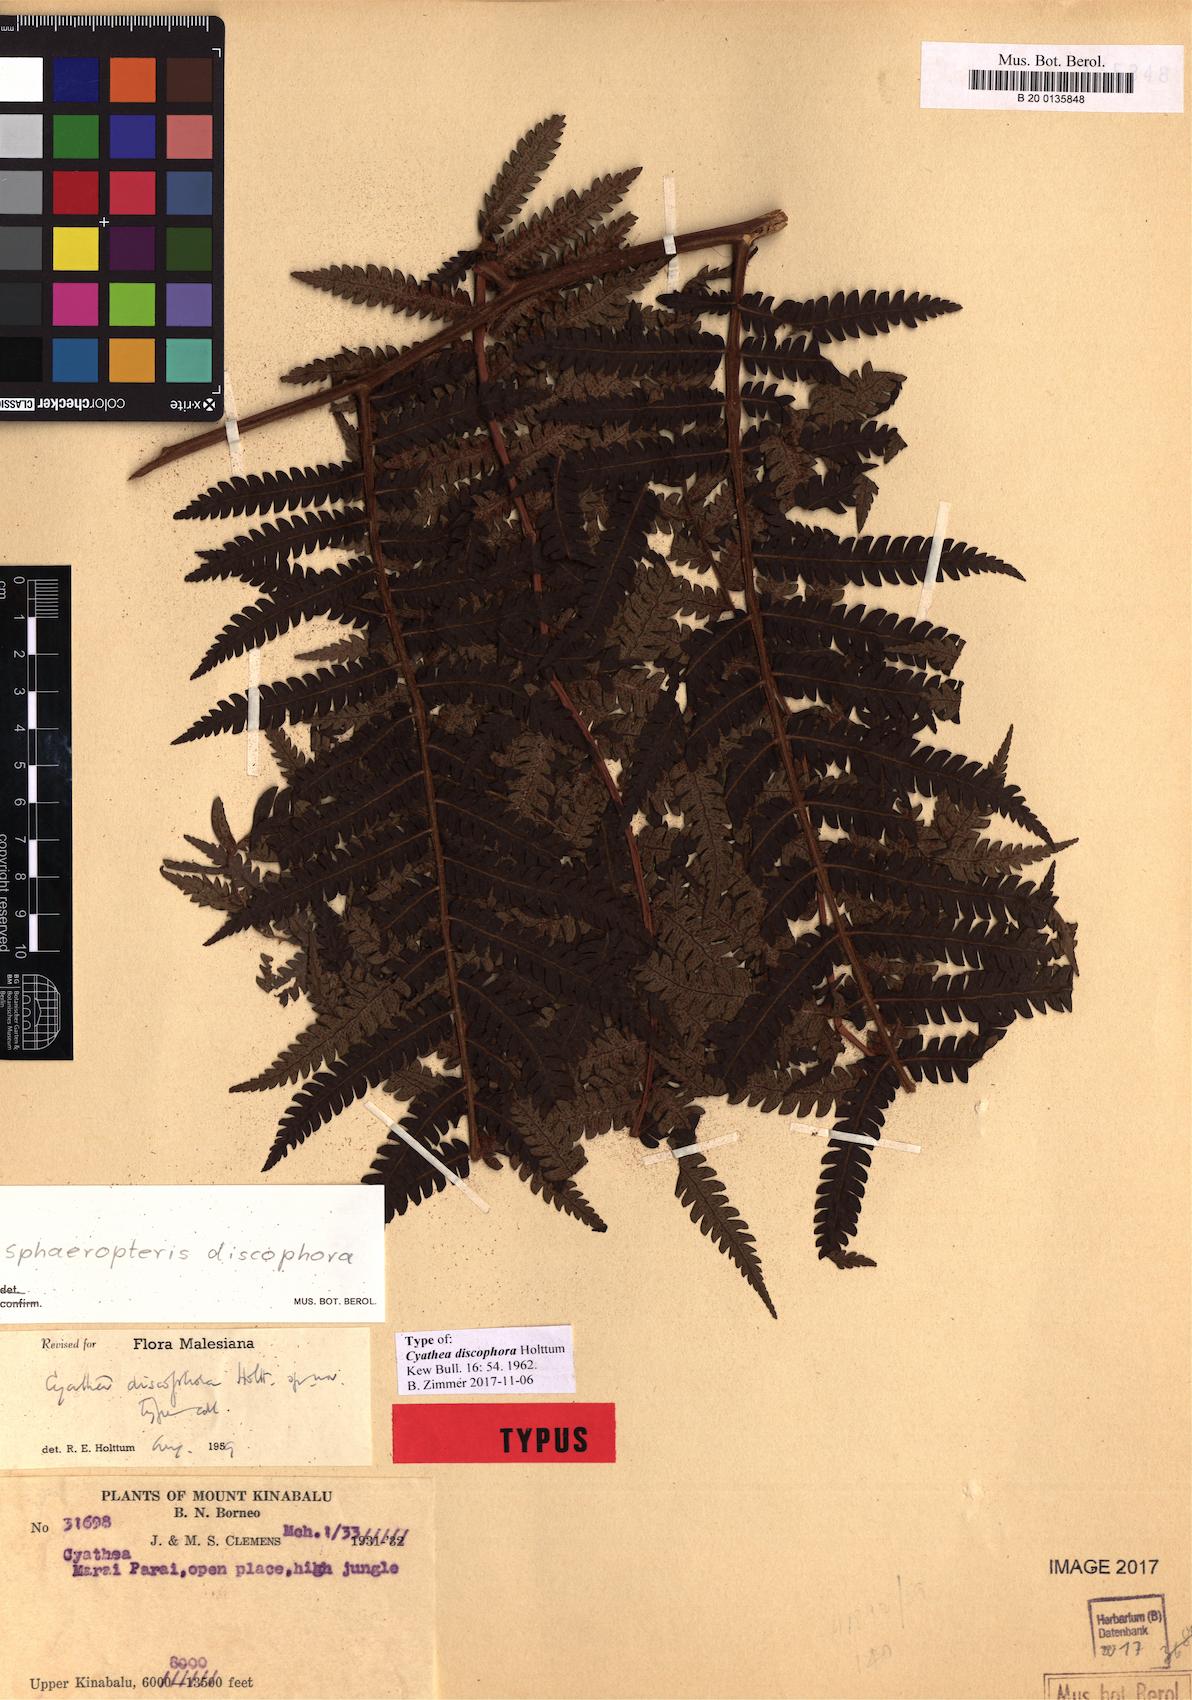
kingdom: Plantae
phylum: Tracheophyta
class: Polypodiopsida
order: Cyatheales
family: Cyatheaceae
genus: Sphaeropteris
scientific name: Sphaeropteris discophora
